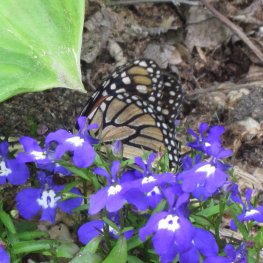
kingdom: Animalia
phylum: Arthropoda
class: Insecta
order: Lepidoptera
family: Nymphalidae
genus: Danaus
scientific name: Danaus plexippus
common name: Monarch
